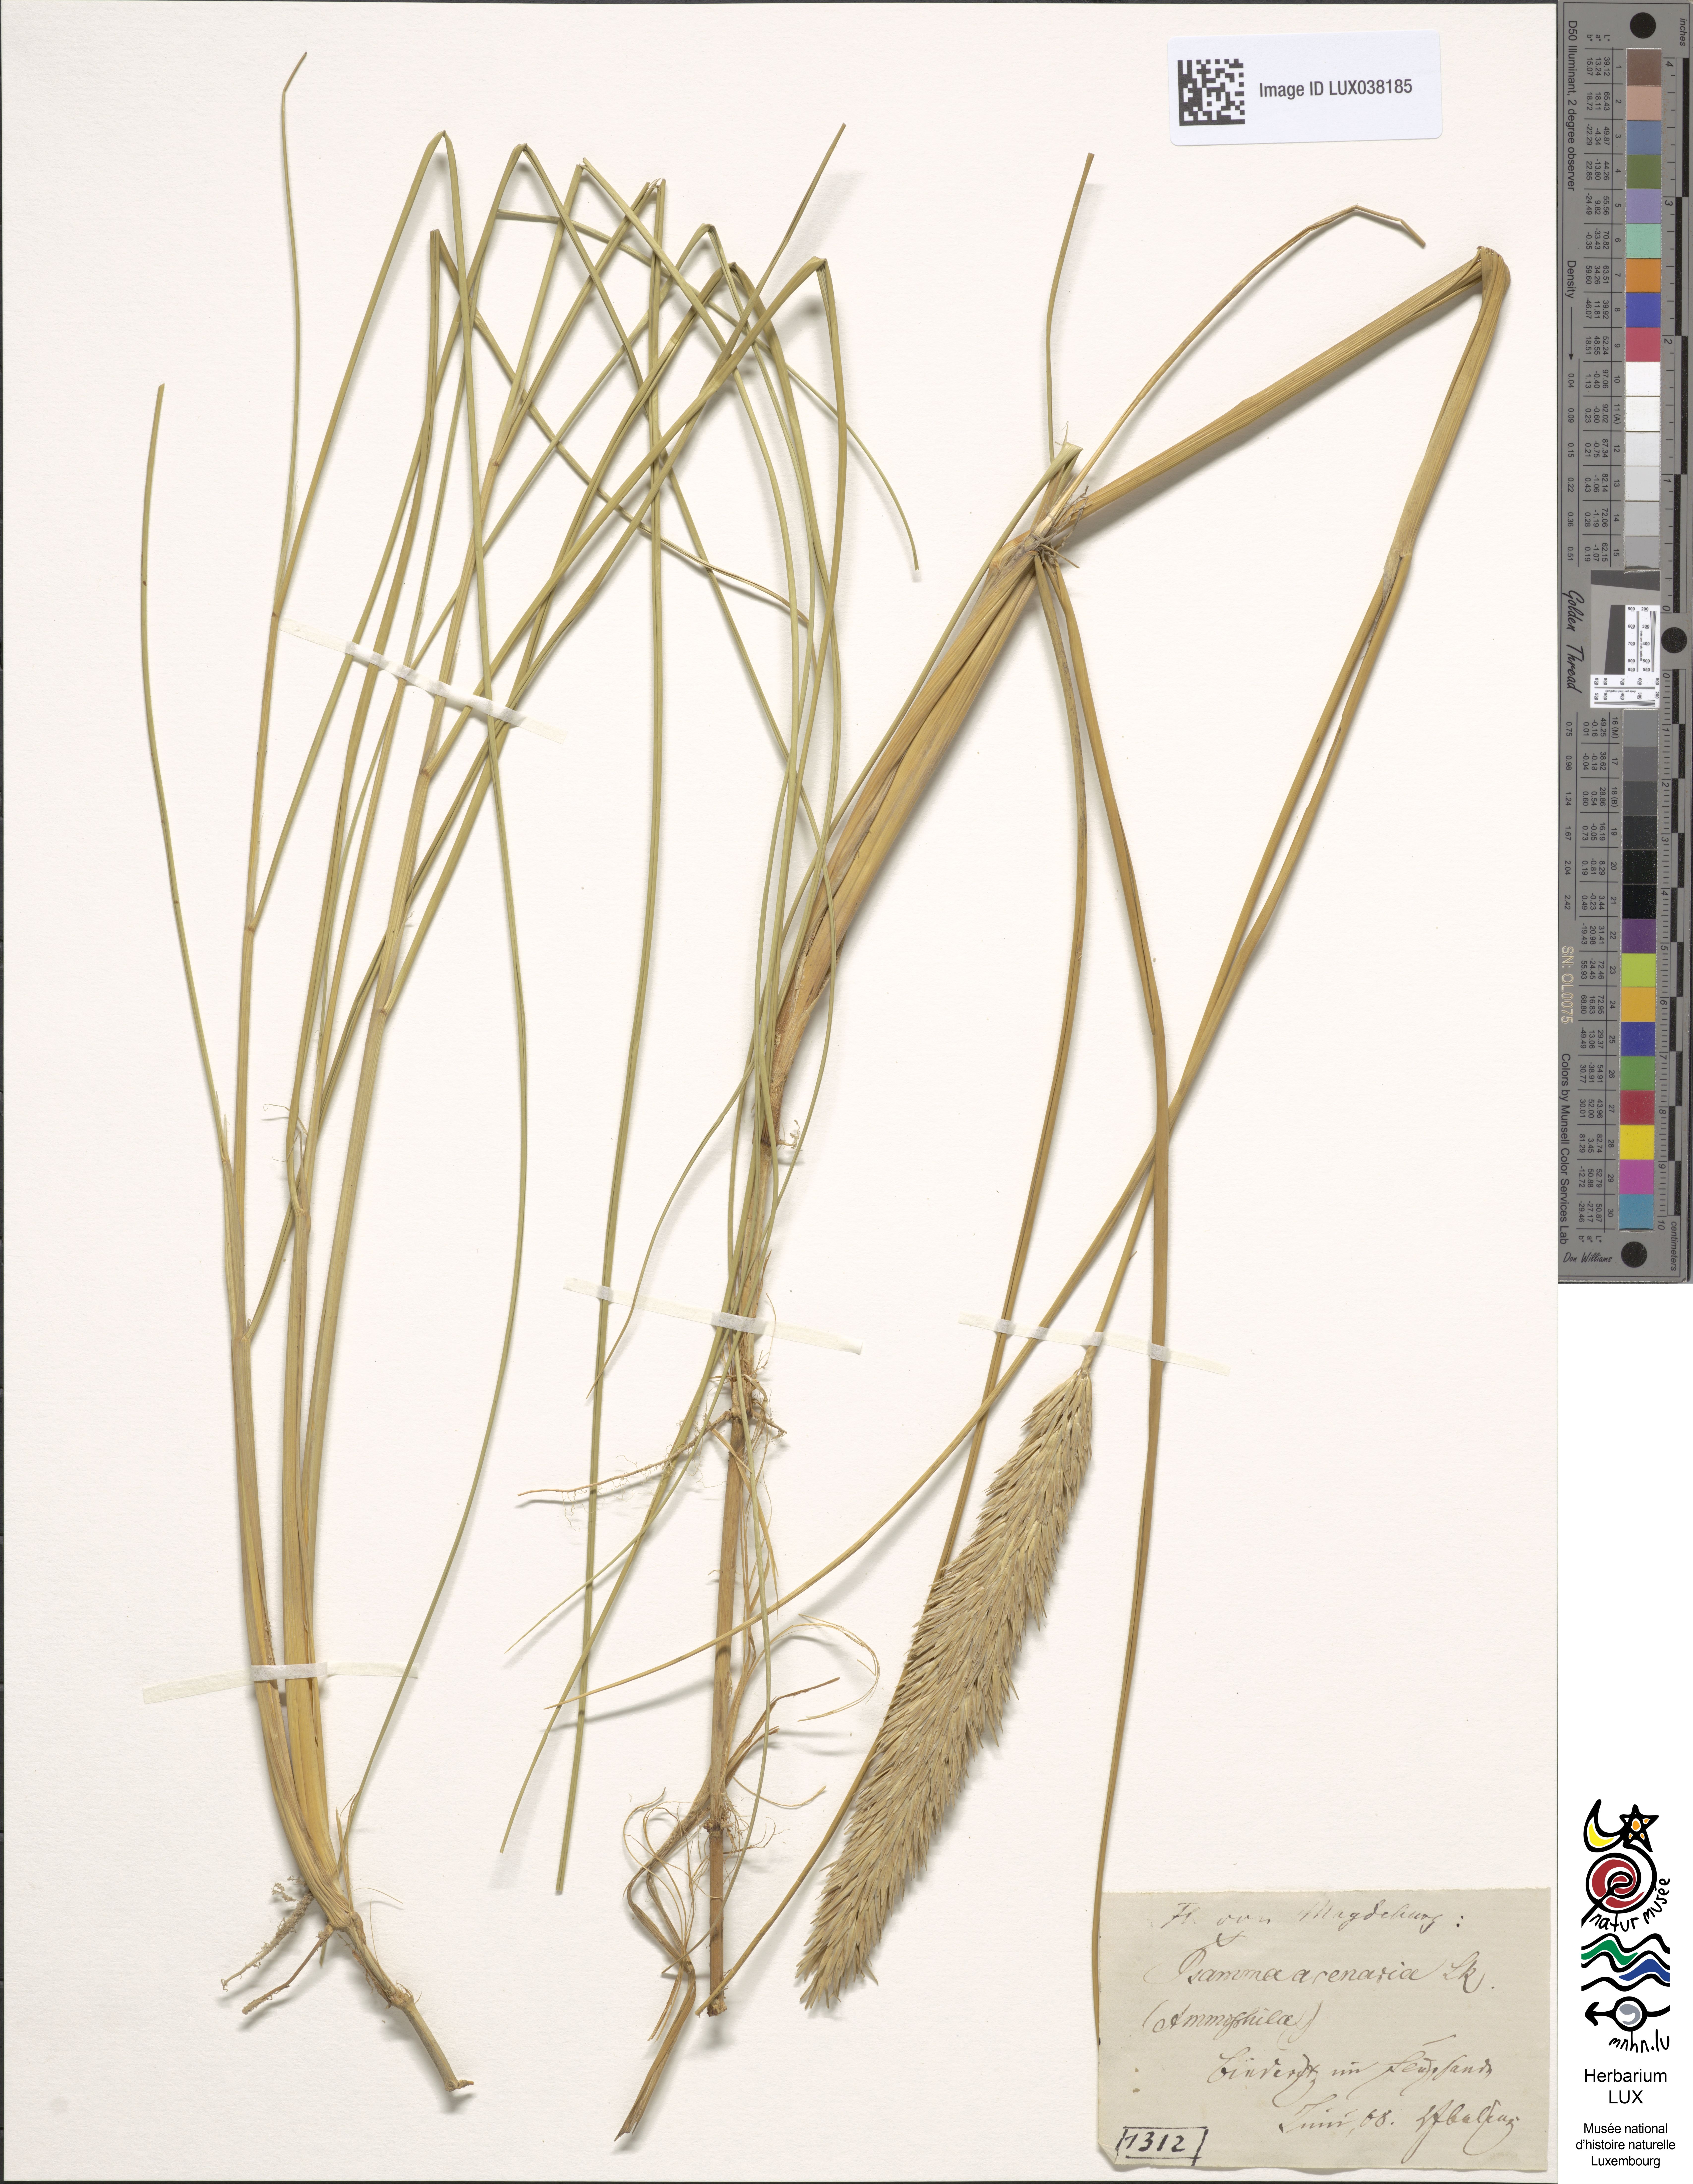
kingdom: Plantae
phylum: Tracheophyta
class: Liliopsida
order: Poales
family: Poaceae
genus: Calamagrostis
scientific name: Calamagrostis arenaria
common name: European beachgrass
